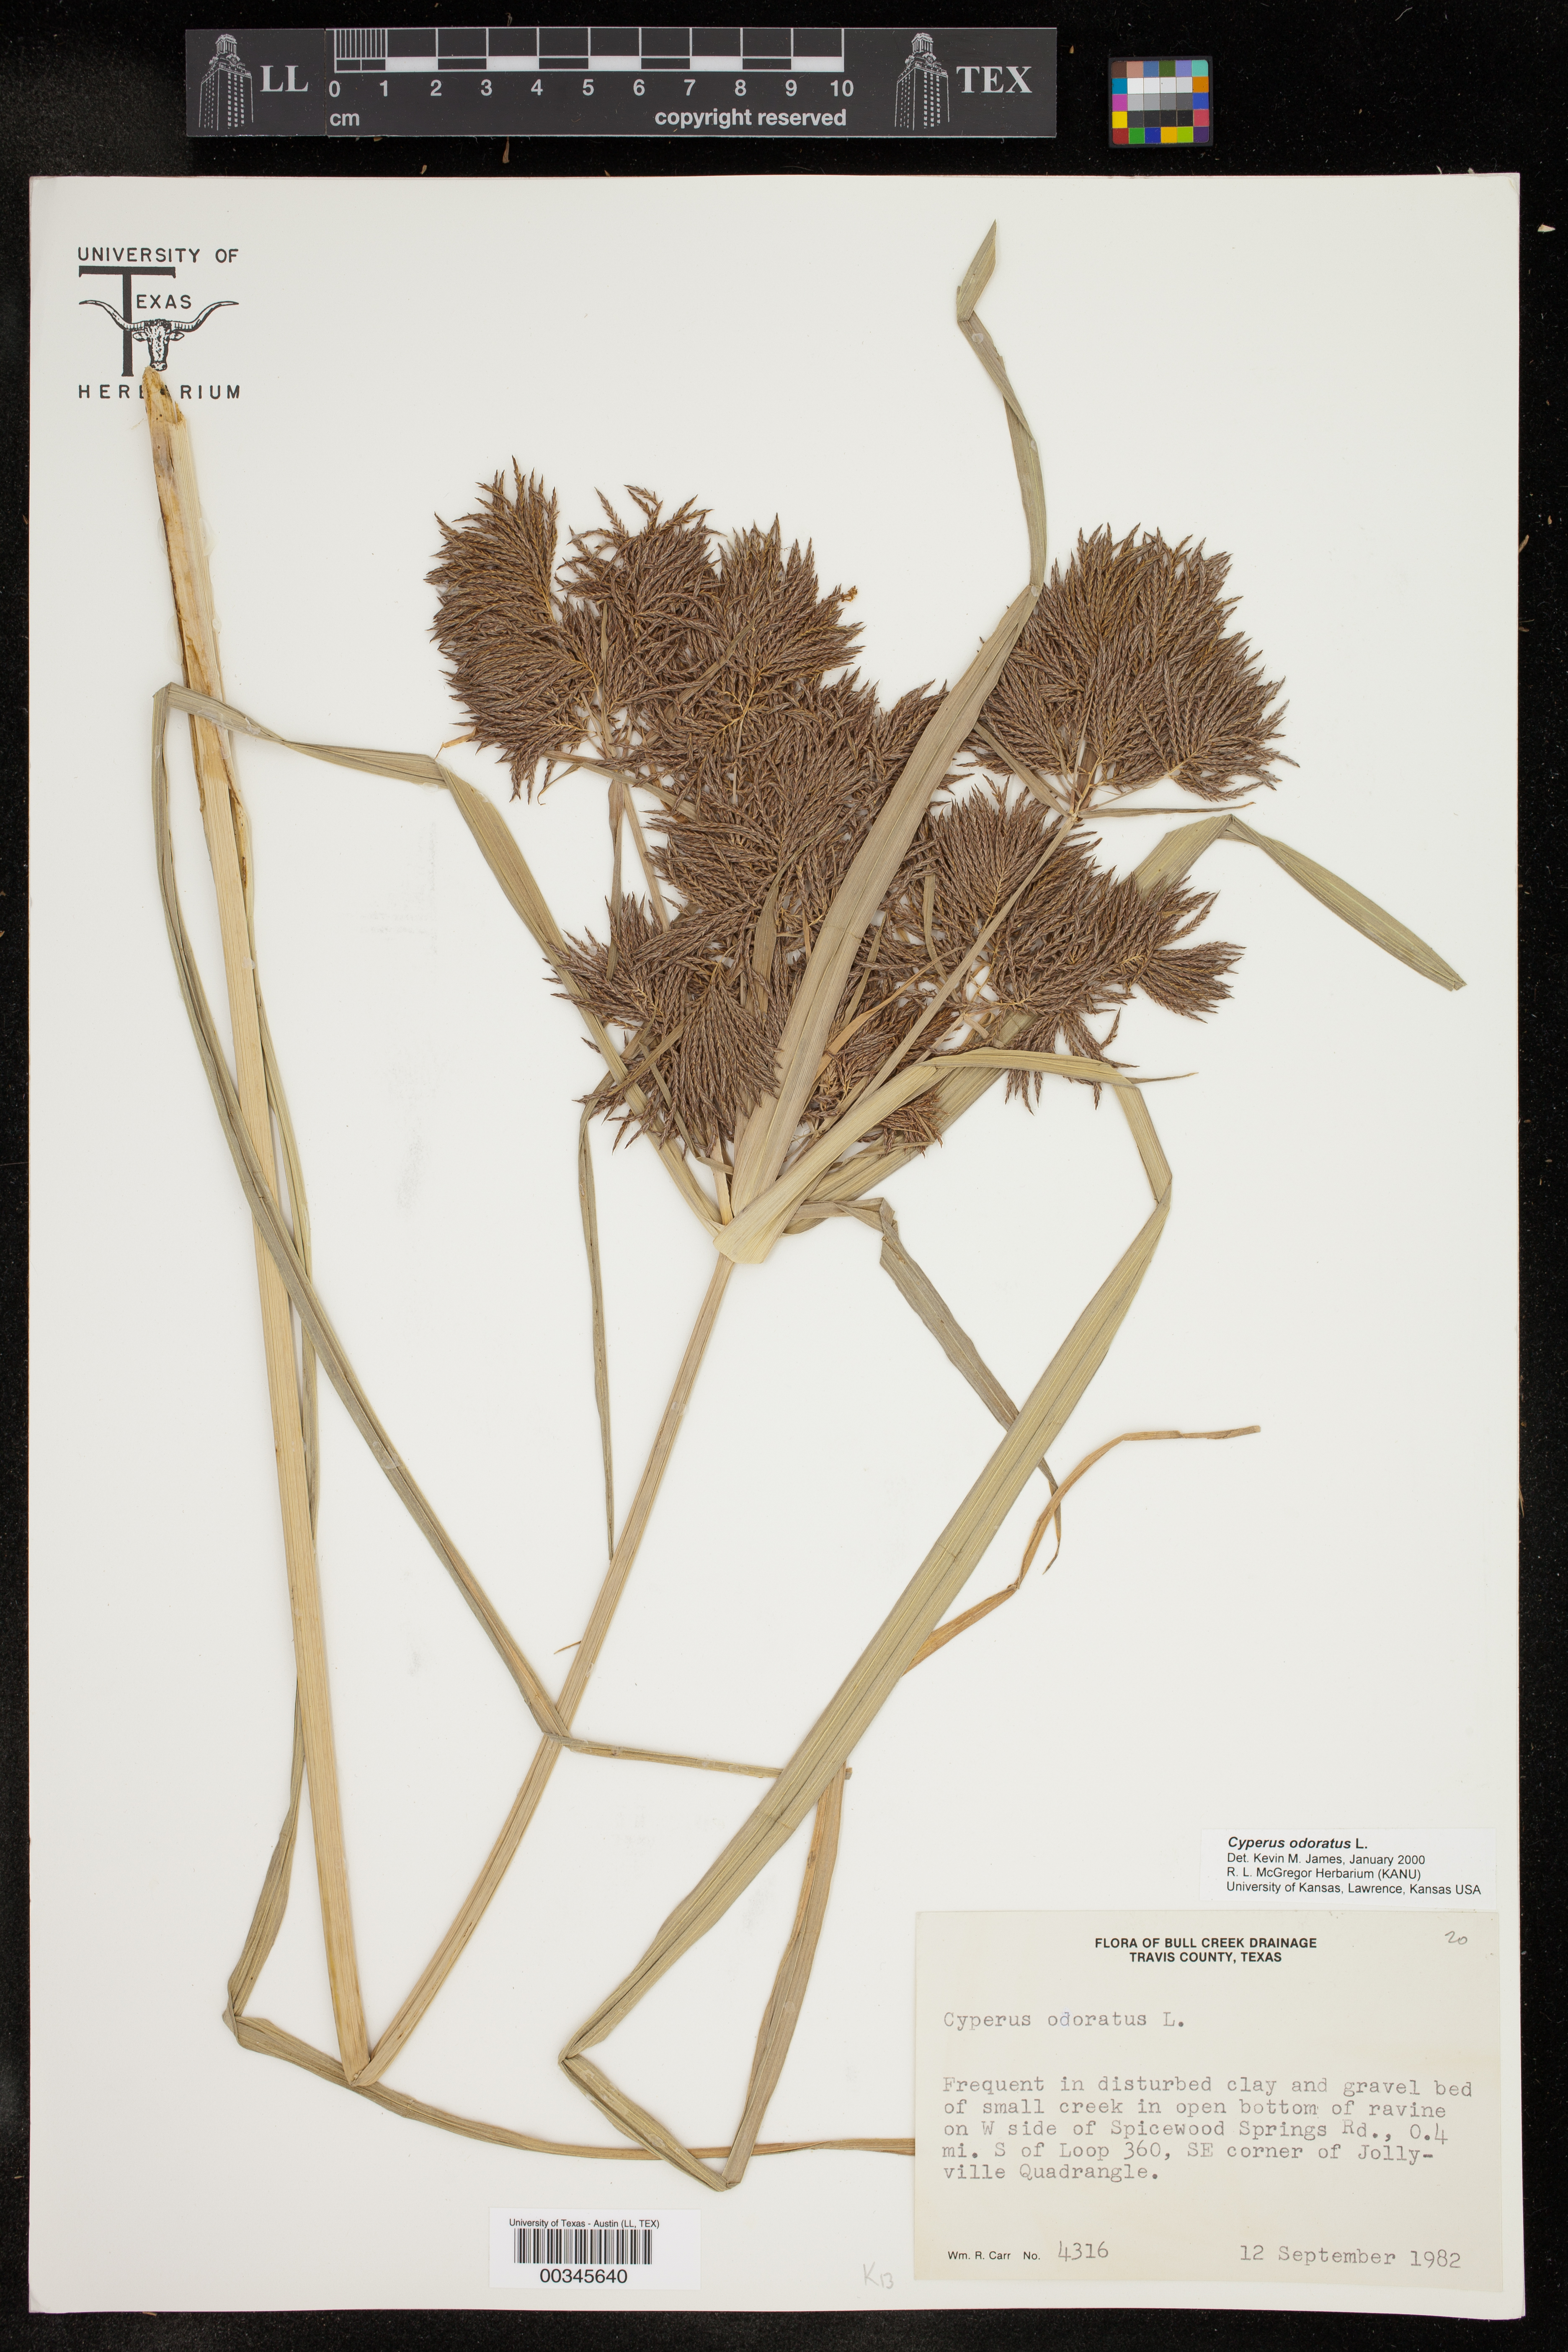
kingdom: Plantae
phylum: Tracheophyta
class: Liliopsida
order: Poales
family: Cyperaceae
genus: Cyperus
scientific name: Cyperus odoratus
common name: Fragrant flatsedge
